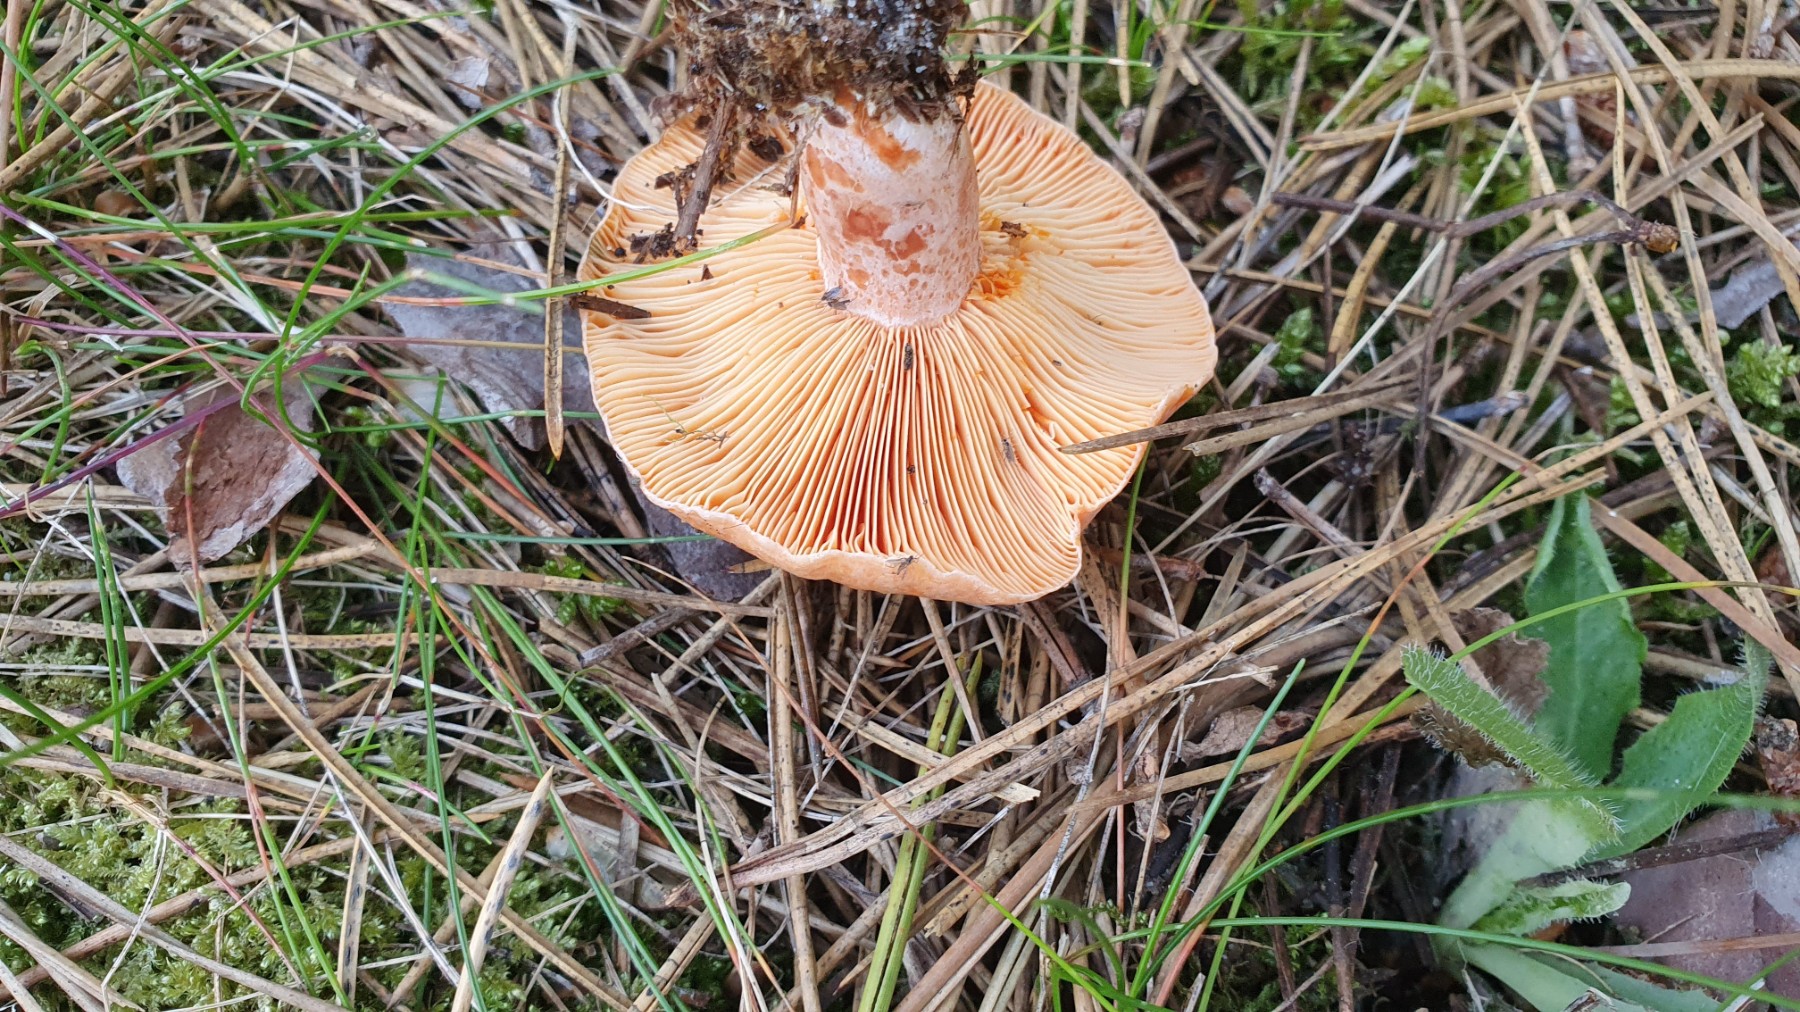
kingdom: Fungi
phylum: Basidiomycota
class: Agaricomycetes
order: Russulales
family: Russulaceae
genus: Lactarius
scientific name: Lactarius deliciosus
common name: velsmagende mælkehat
